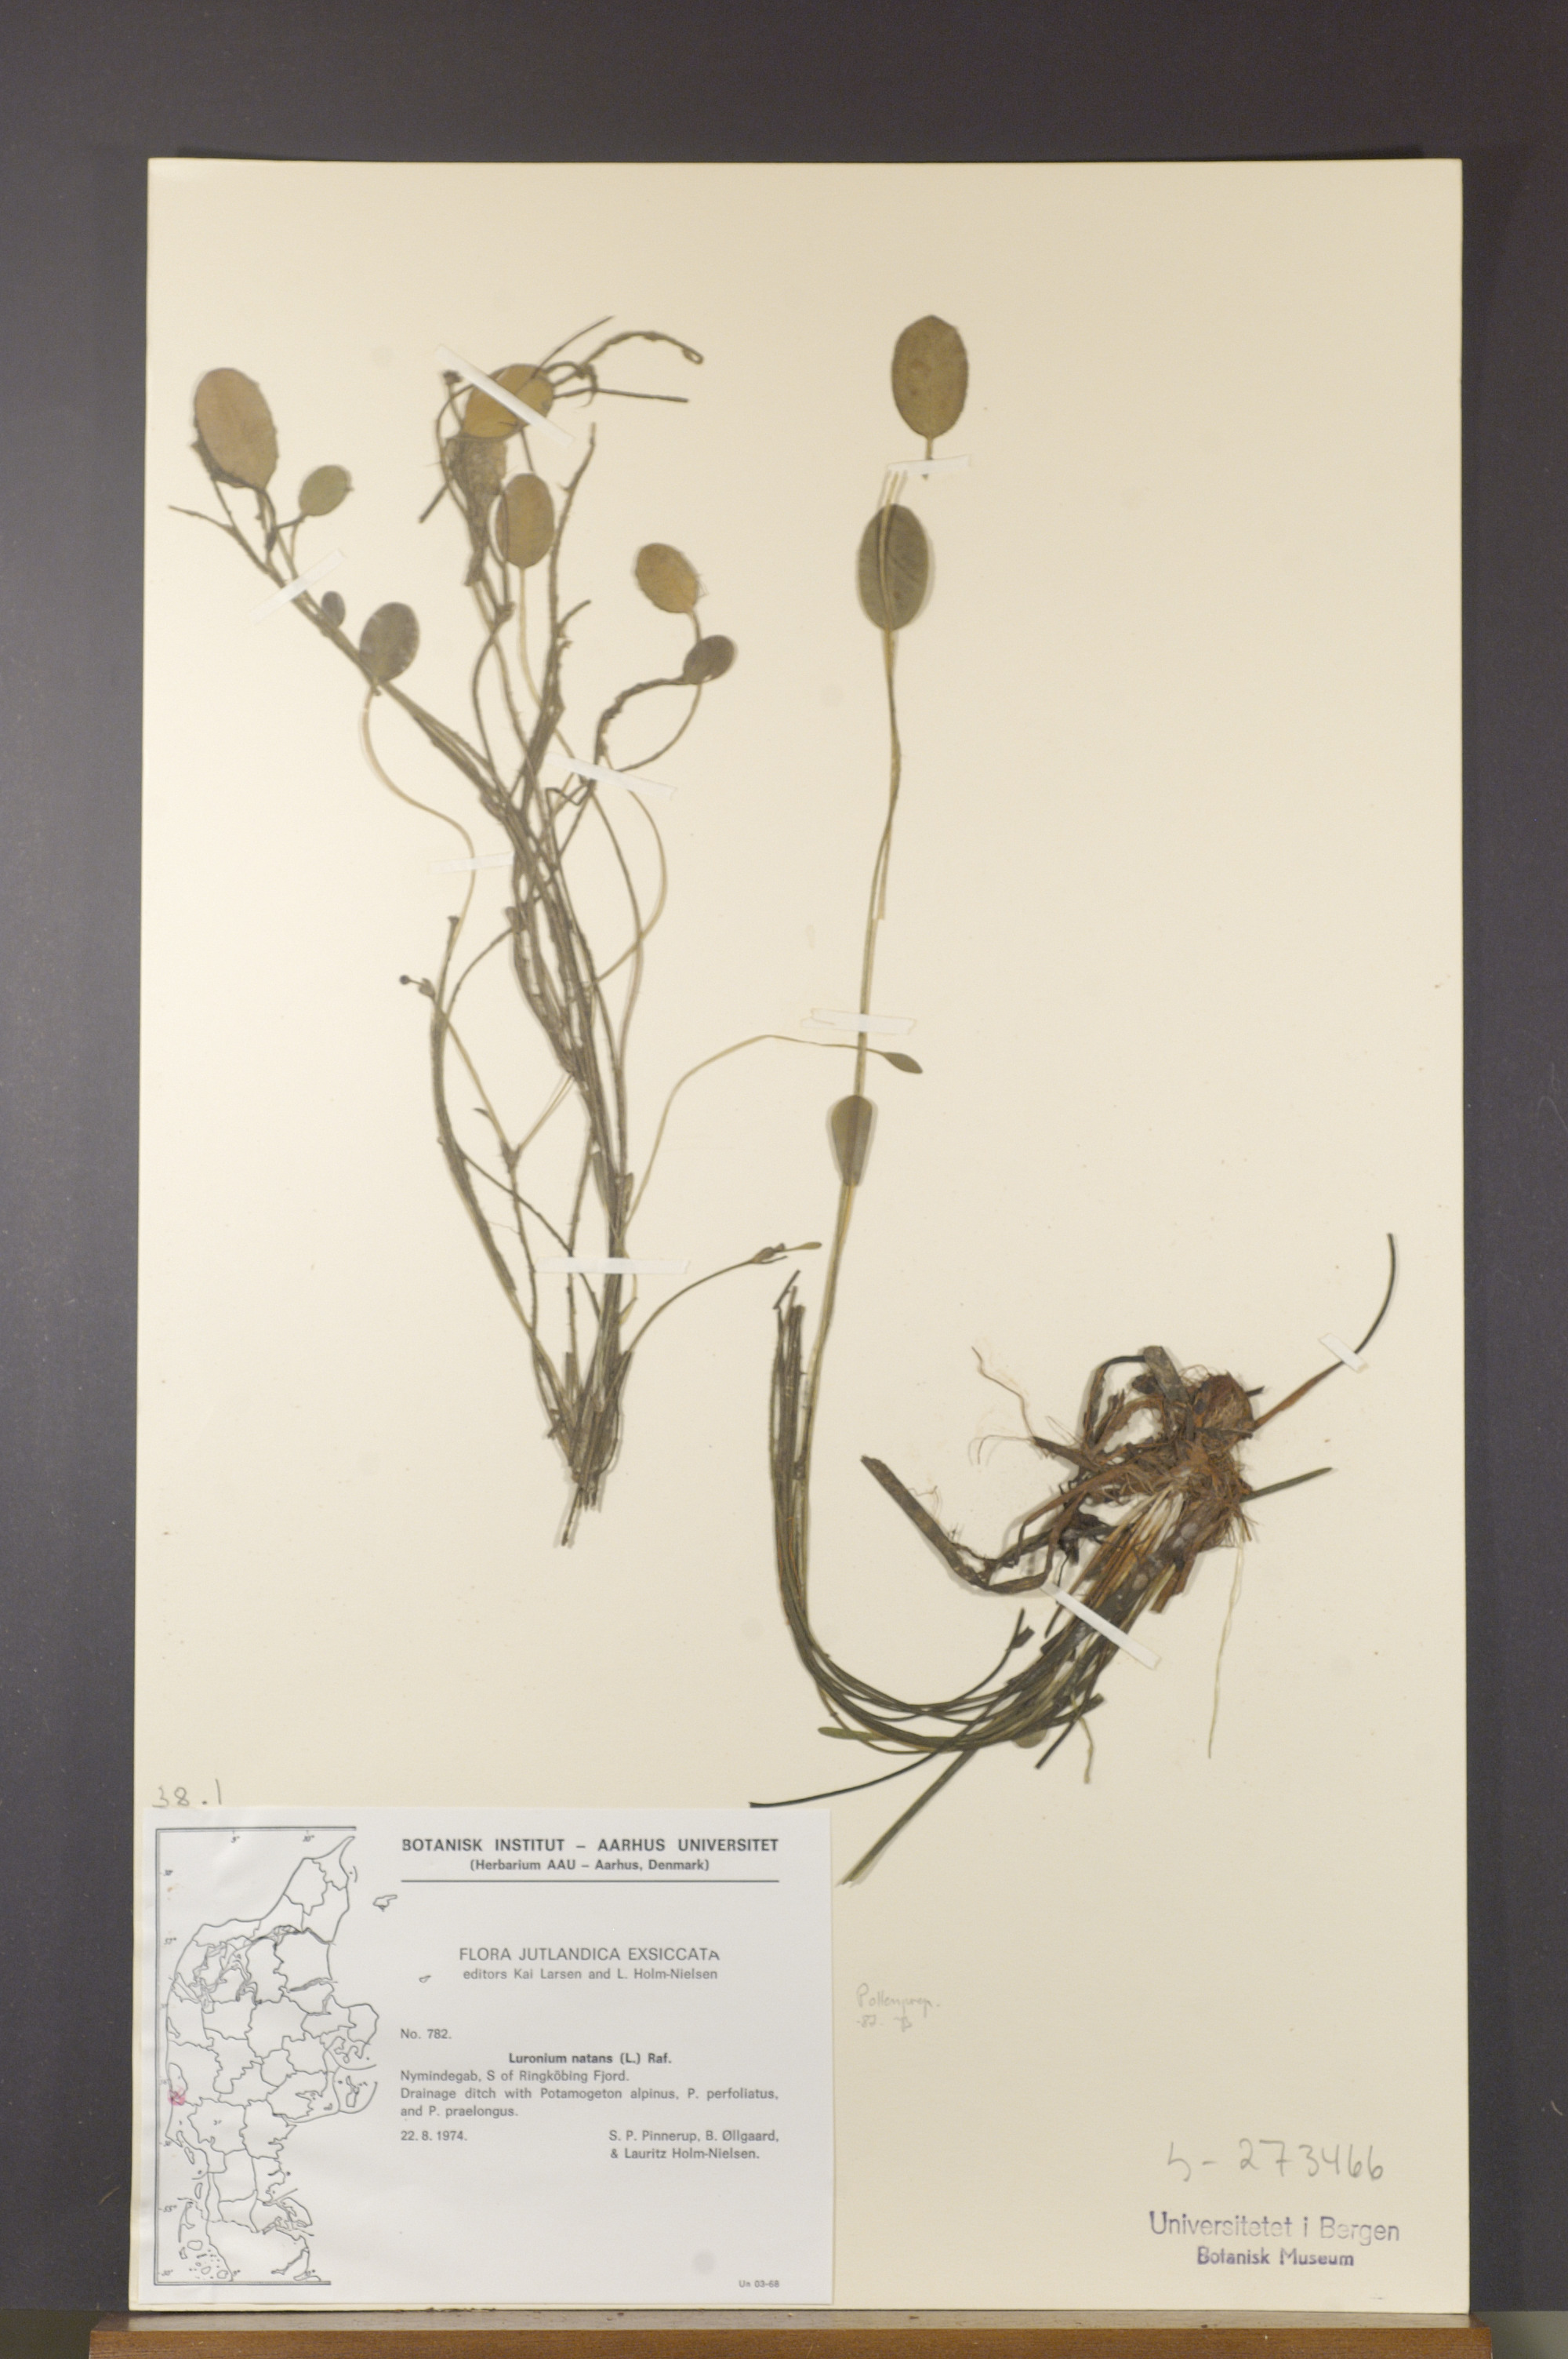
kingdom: Plantae
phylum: Tracheophyta
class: Liliopsida
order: Alismatales
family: Alismataceae
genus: Luronium
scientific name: Luronium natans
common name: Floating water-plantain
